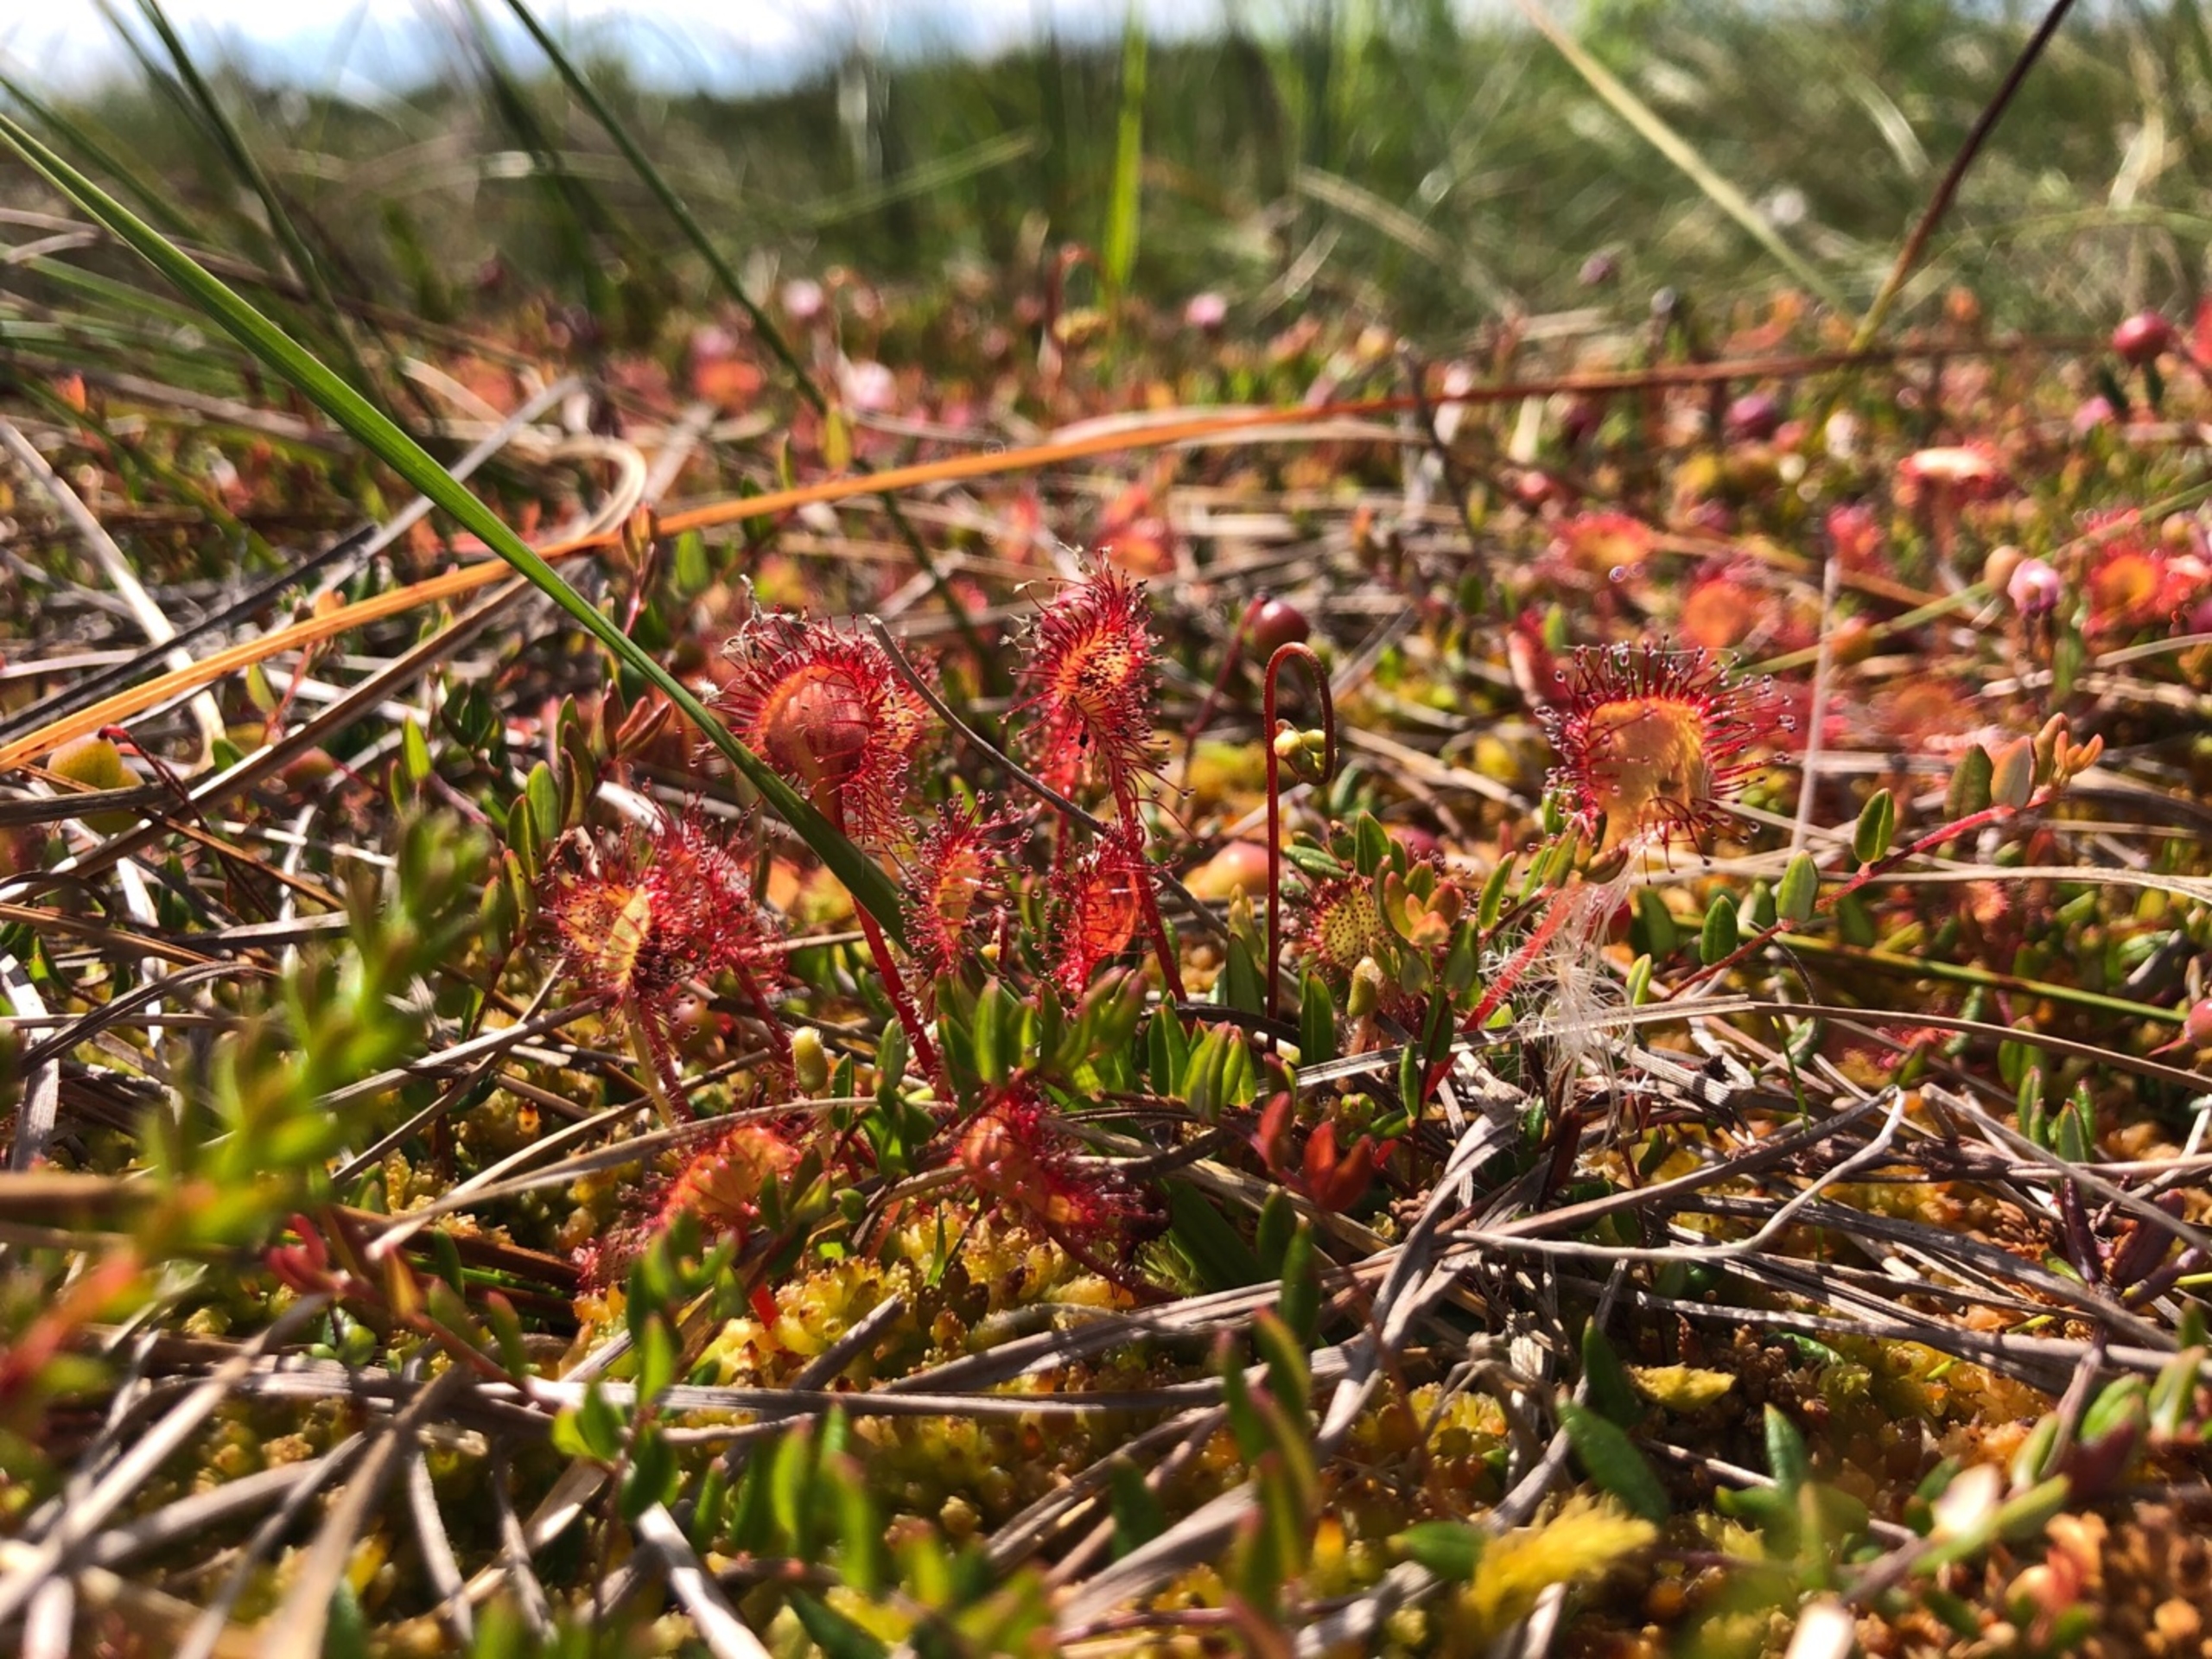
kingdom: Plantae
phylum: Tracheophyta
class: Magnoliopsida
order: Caryophyllales
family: Droseraceae
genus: Drosera
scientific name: Drosera rotundifolia
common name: Rundbladet soldug
